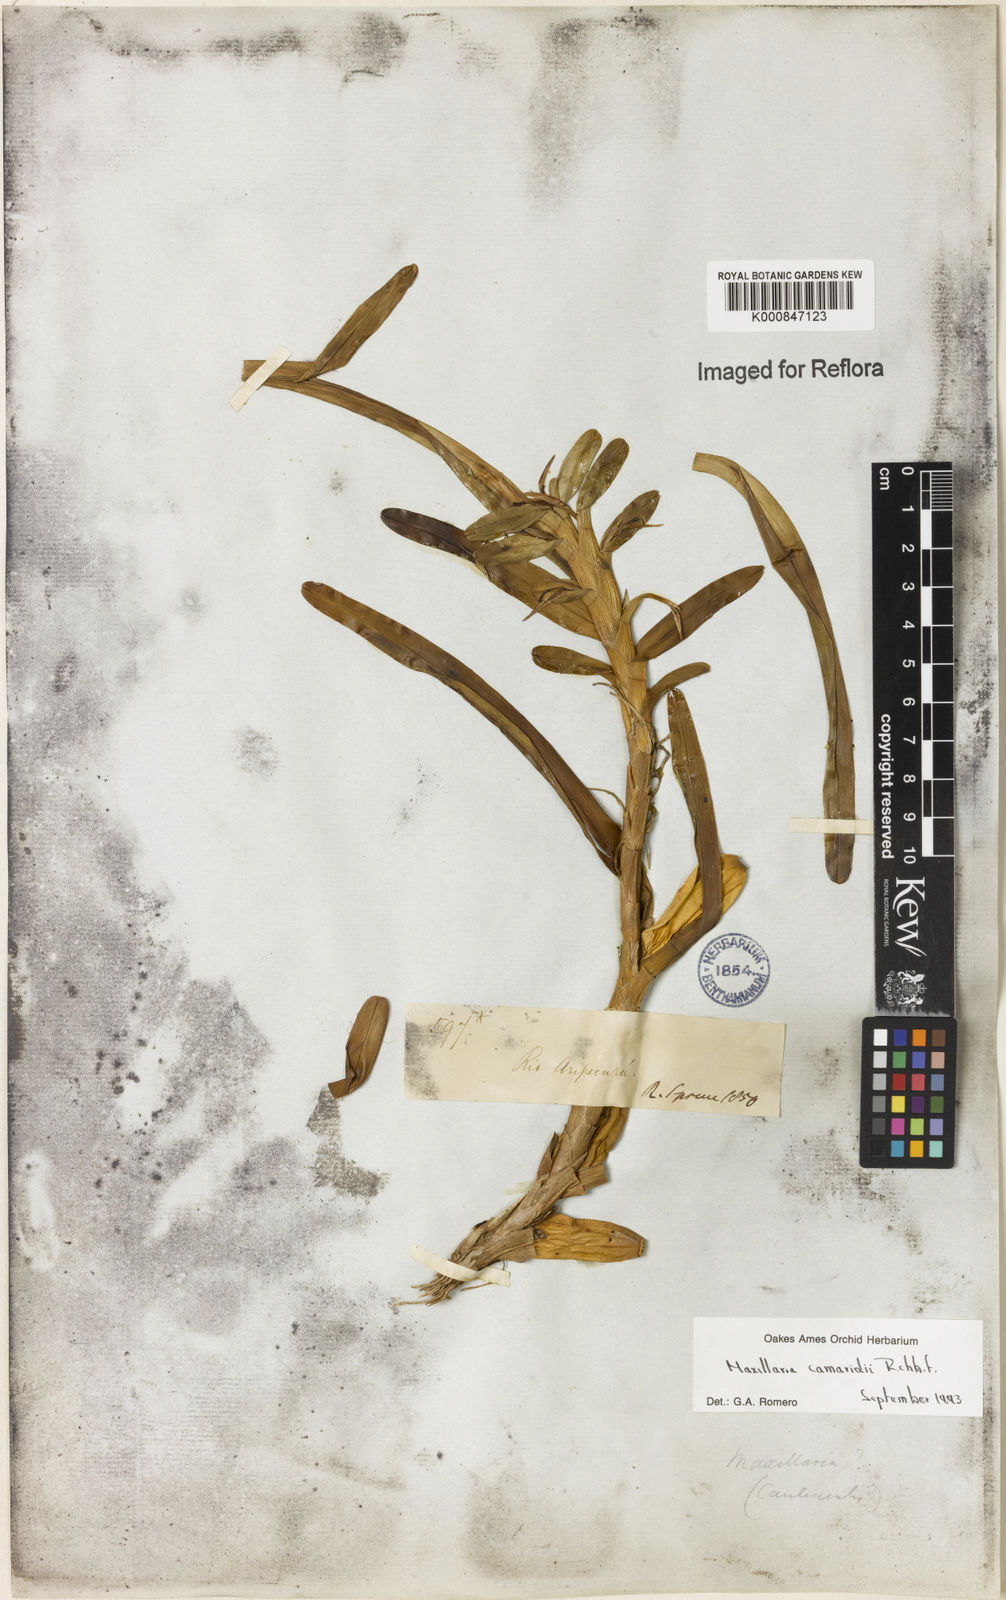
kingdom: Plantae
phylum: Tracheophyta
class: Liliopsida
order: Asparagales
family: Orchidaceae
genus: Maxillaria
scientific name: Maxillaria lutescens
